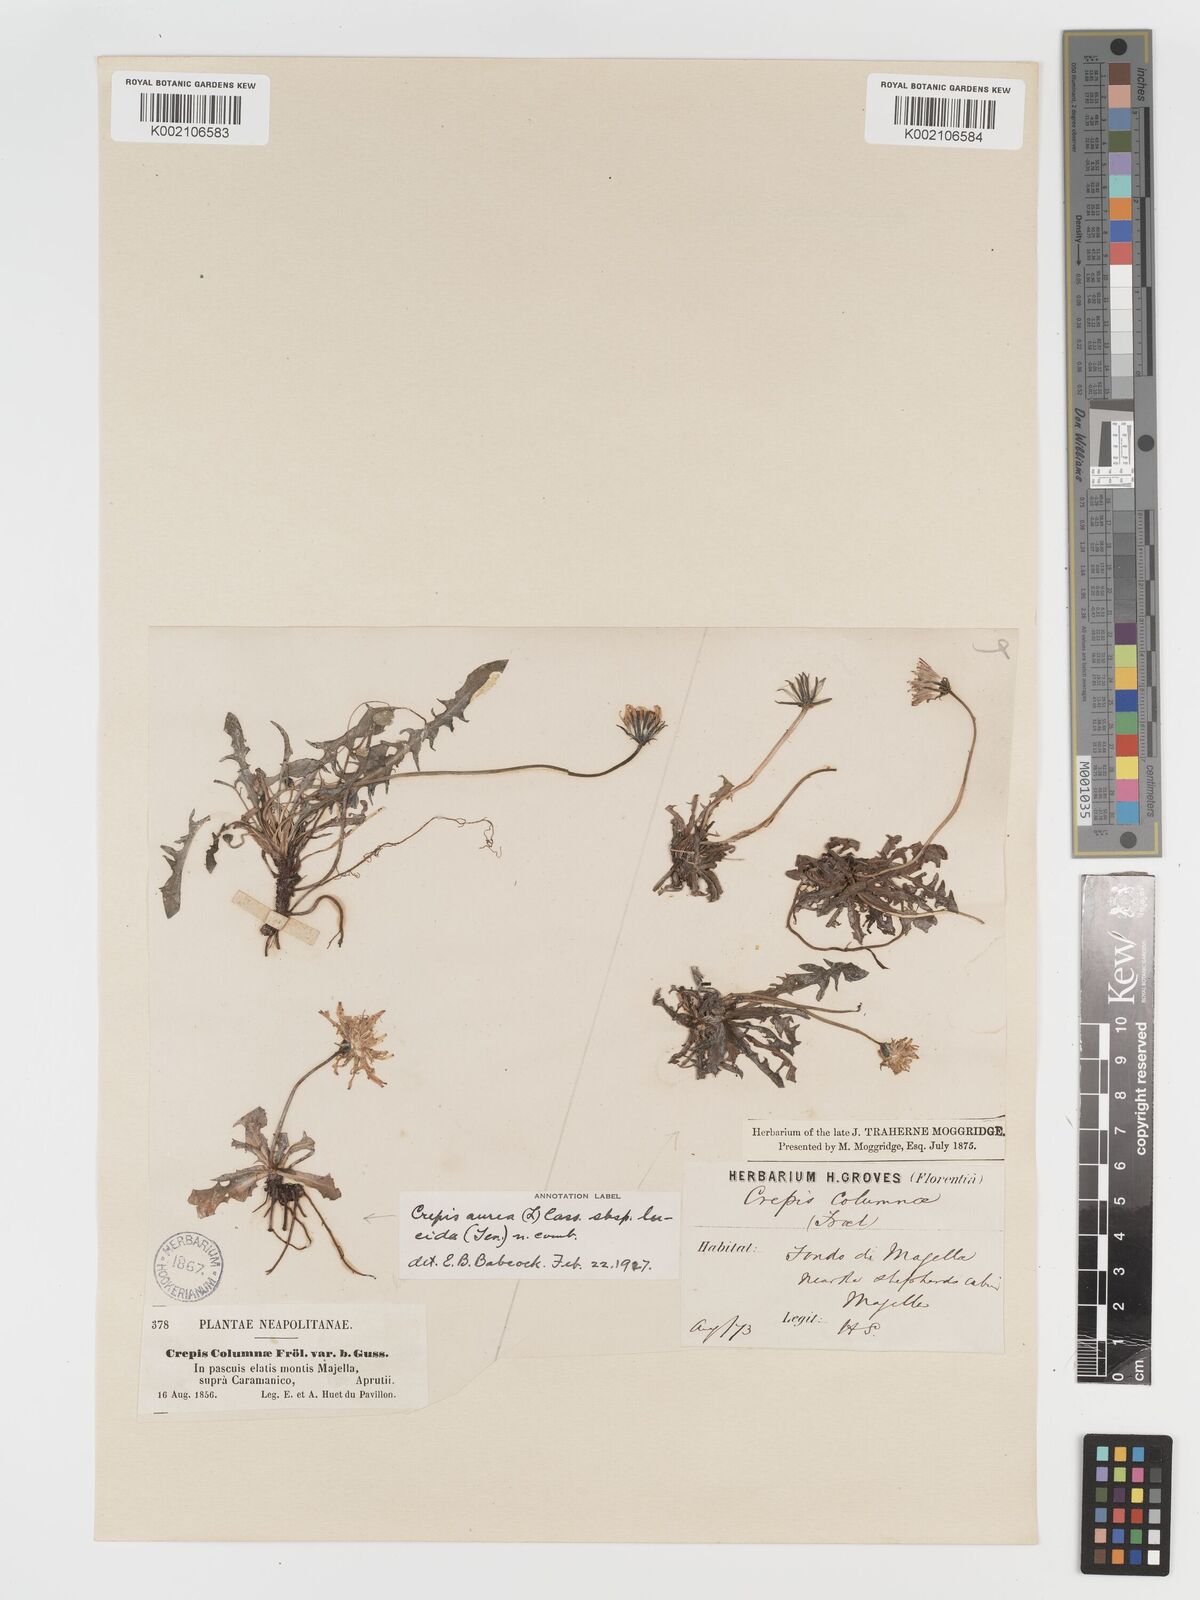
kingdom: Plantae
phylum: Tracheophyta
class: Magnoliopsida
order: Asterales
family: Asteraceae
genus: Crepis
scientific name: Crepis aurea
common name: Golden hawk's-beard
